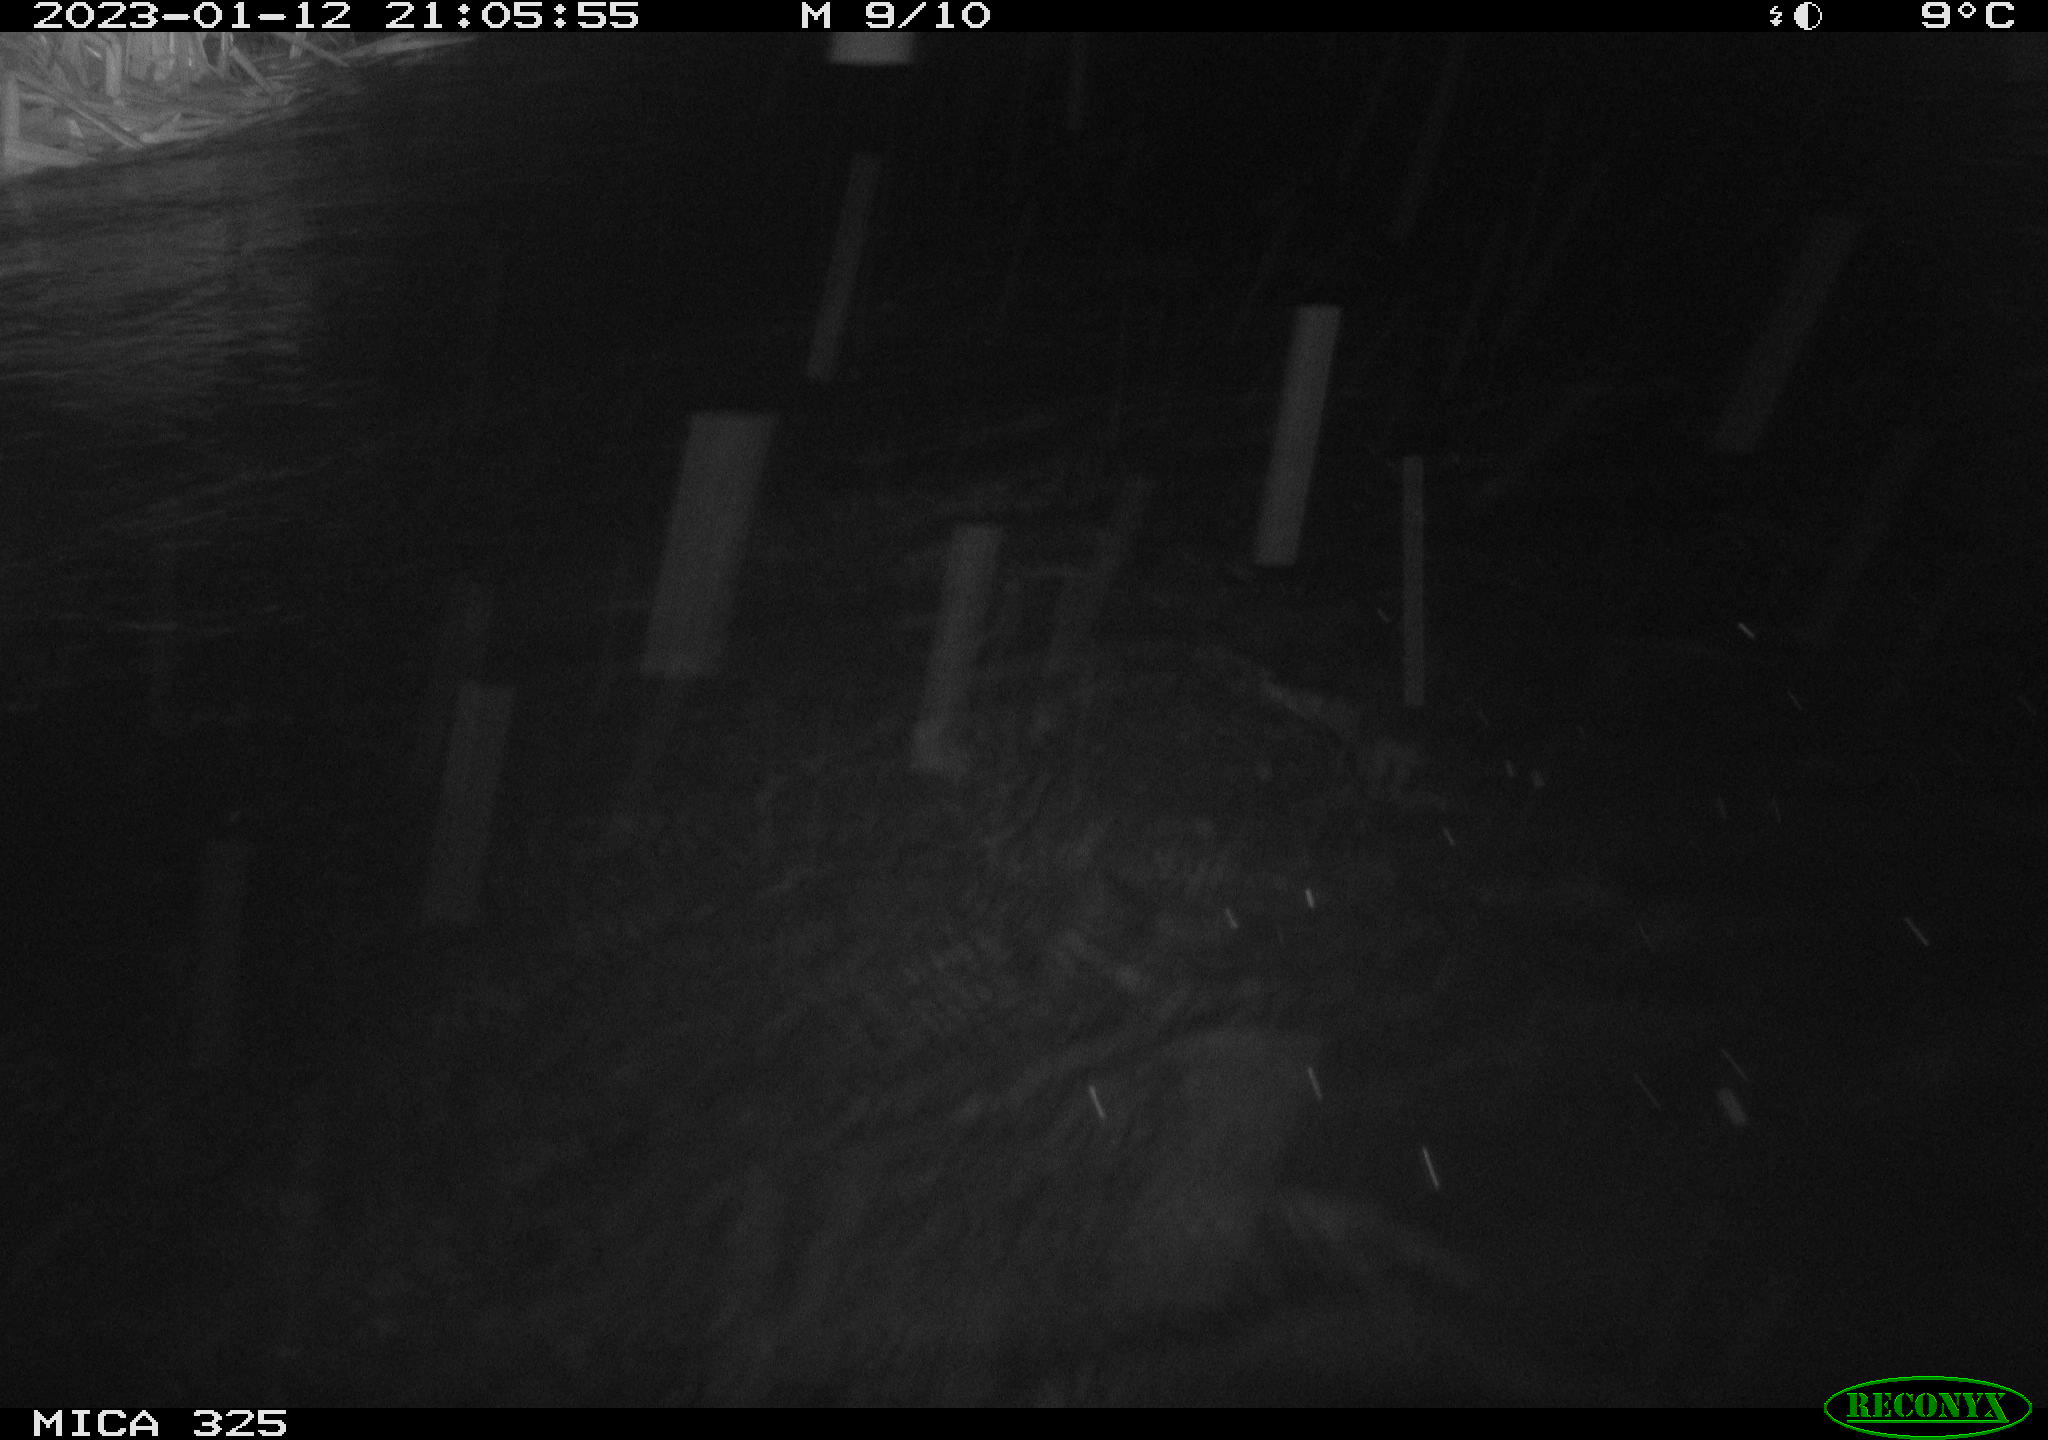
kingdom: Animalia
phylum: Chordata
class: Mammalia
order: Rodentia
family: Myocastoridae
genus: Myocastor
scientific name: Myocastor coypus
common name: Coypu
